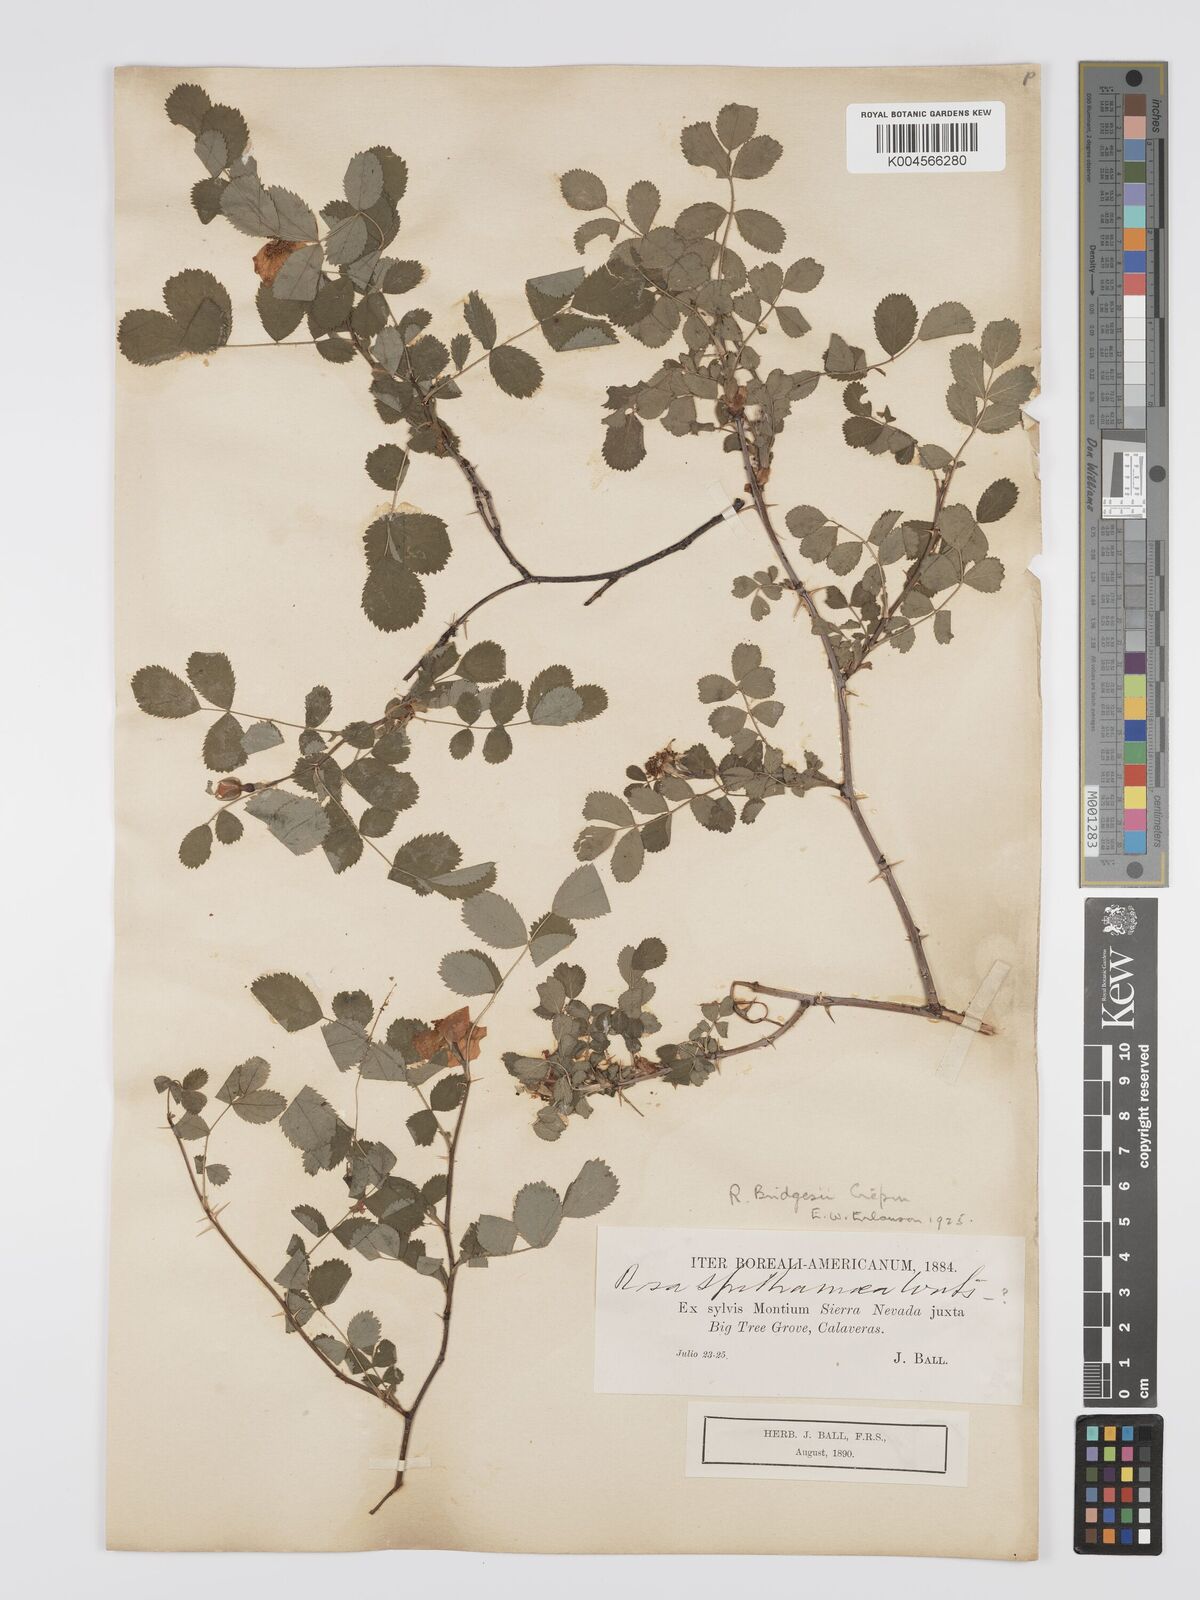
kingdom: Plantae
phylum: Tracheophyta
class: Magnoliopsida
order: Rosales
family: Rosaceae
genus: Rosa
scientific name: Rosa bridgesii
